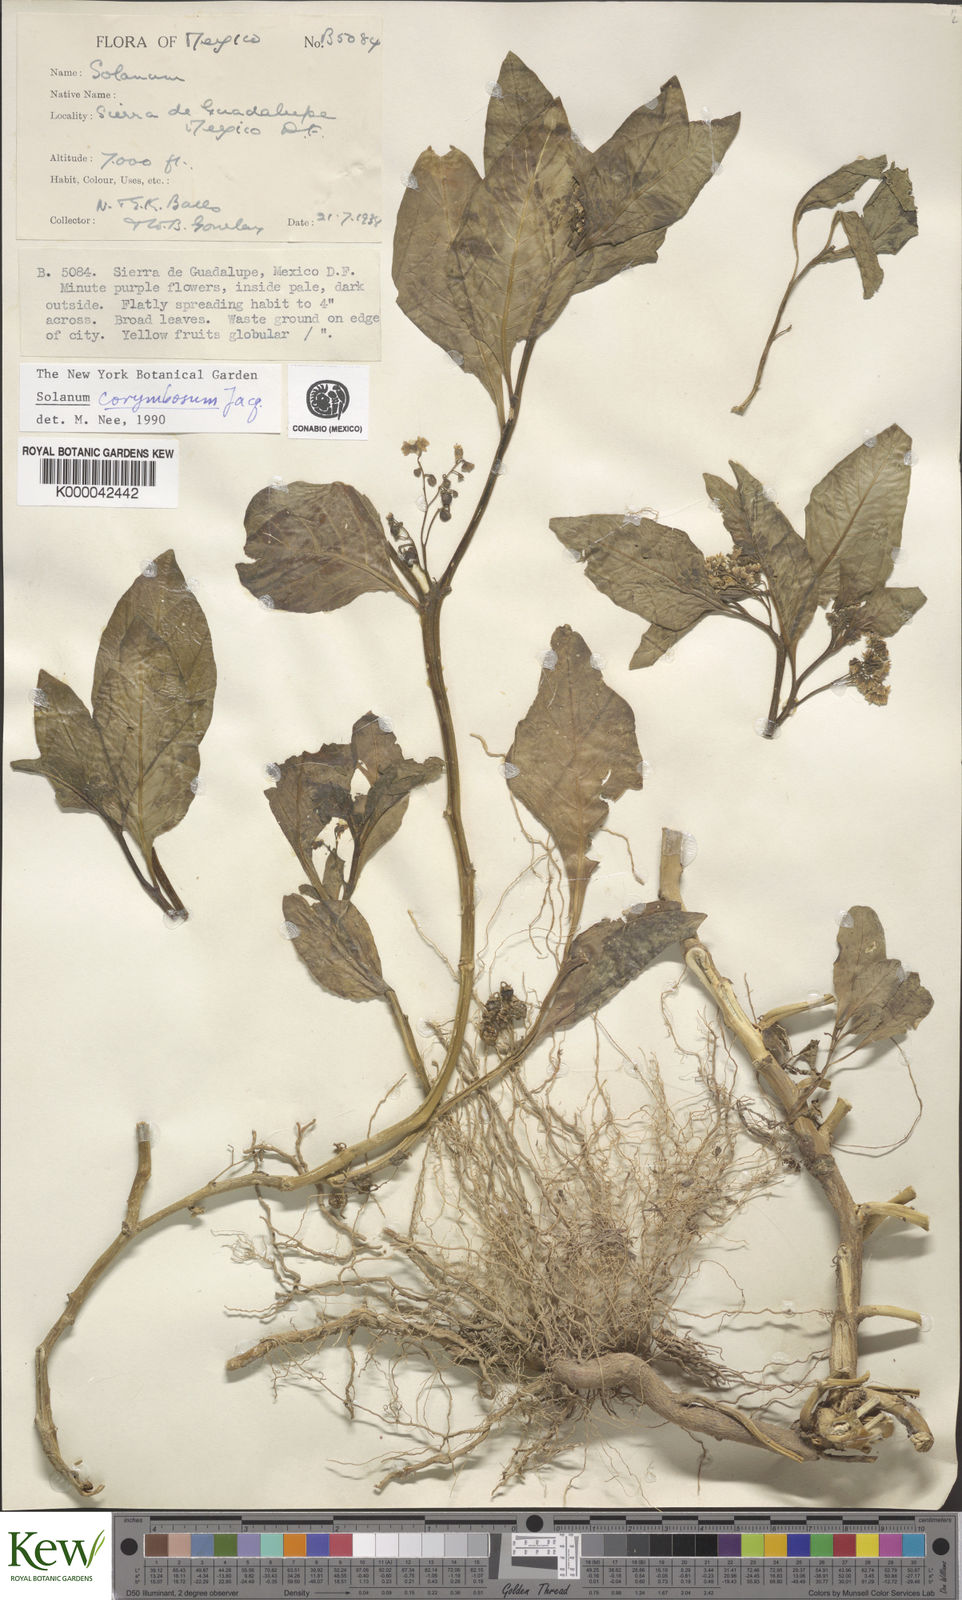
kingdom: Plantae
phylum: Tracheophyta
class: Magnoliopsida
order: Solanales
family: Solanaceae
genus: Solanum
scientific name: Solanum corymbosum
